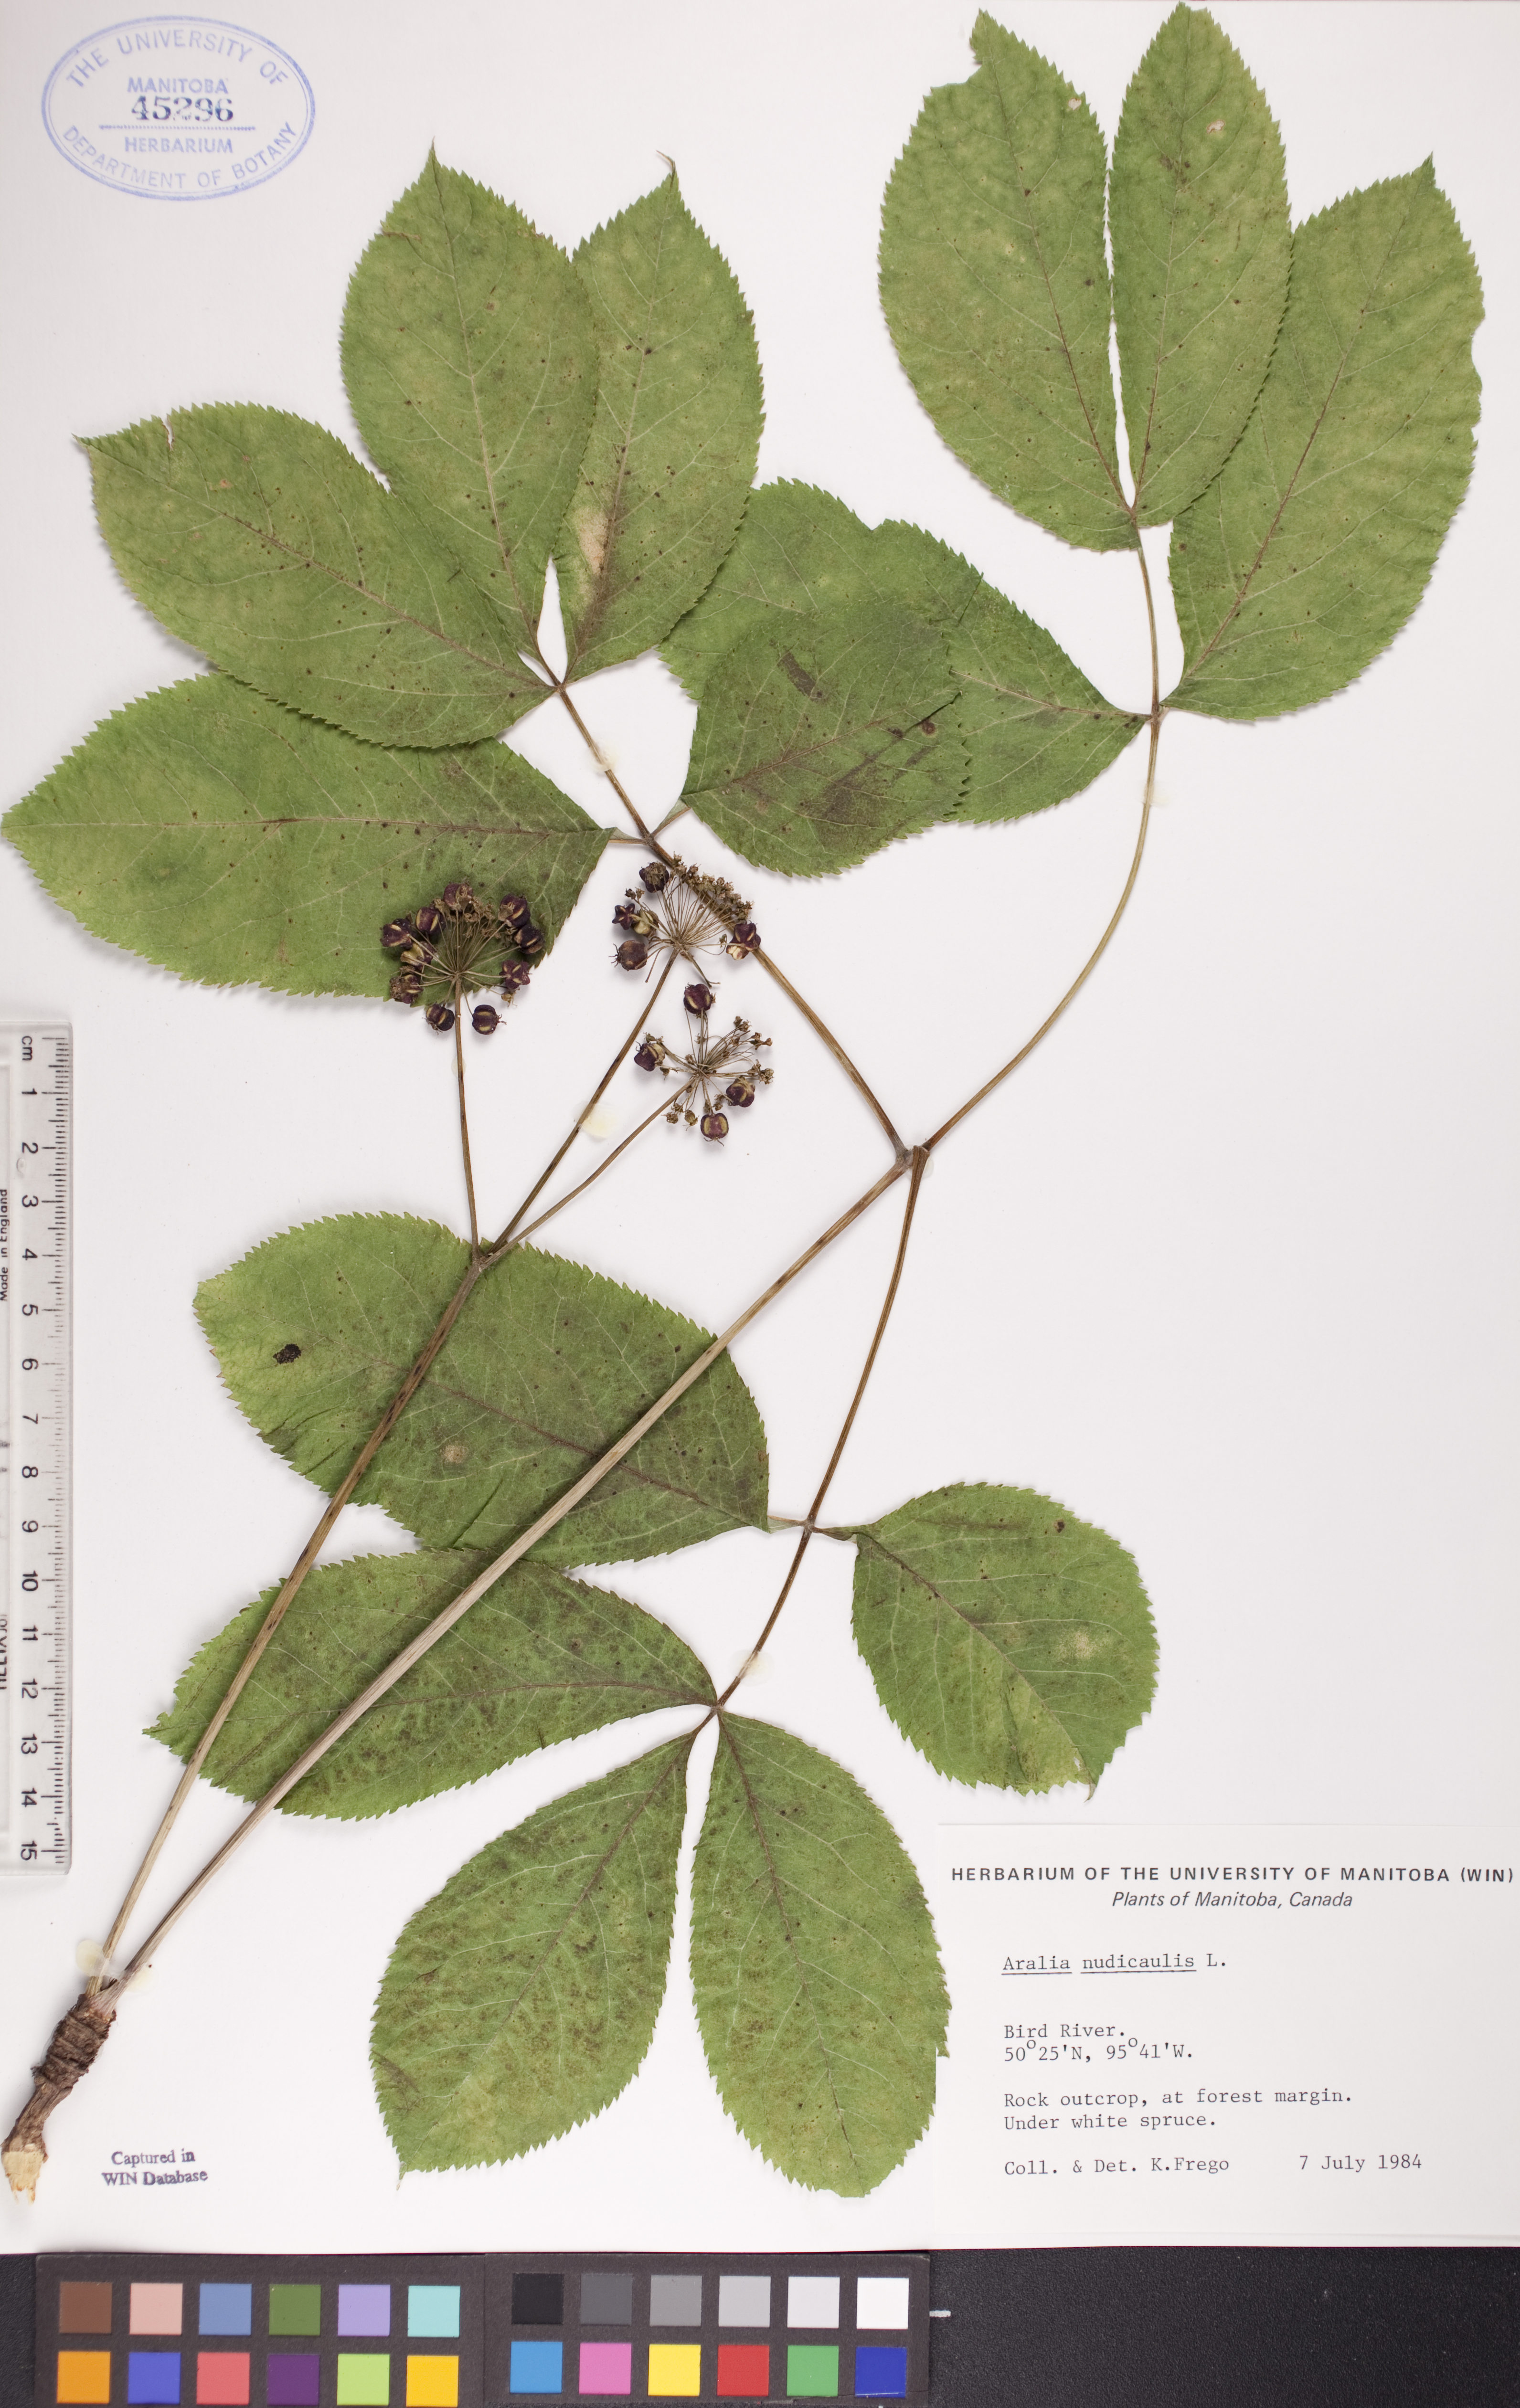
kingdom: Plantae
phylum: Tracheophyta
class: Magnoliopsida
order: Apiales
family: Araliaceae
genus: Aralia
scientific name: Aralia nudicaulis
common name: Wild sarsaparilla
